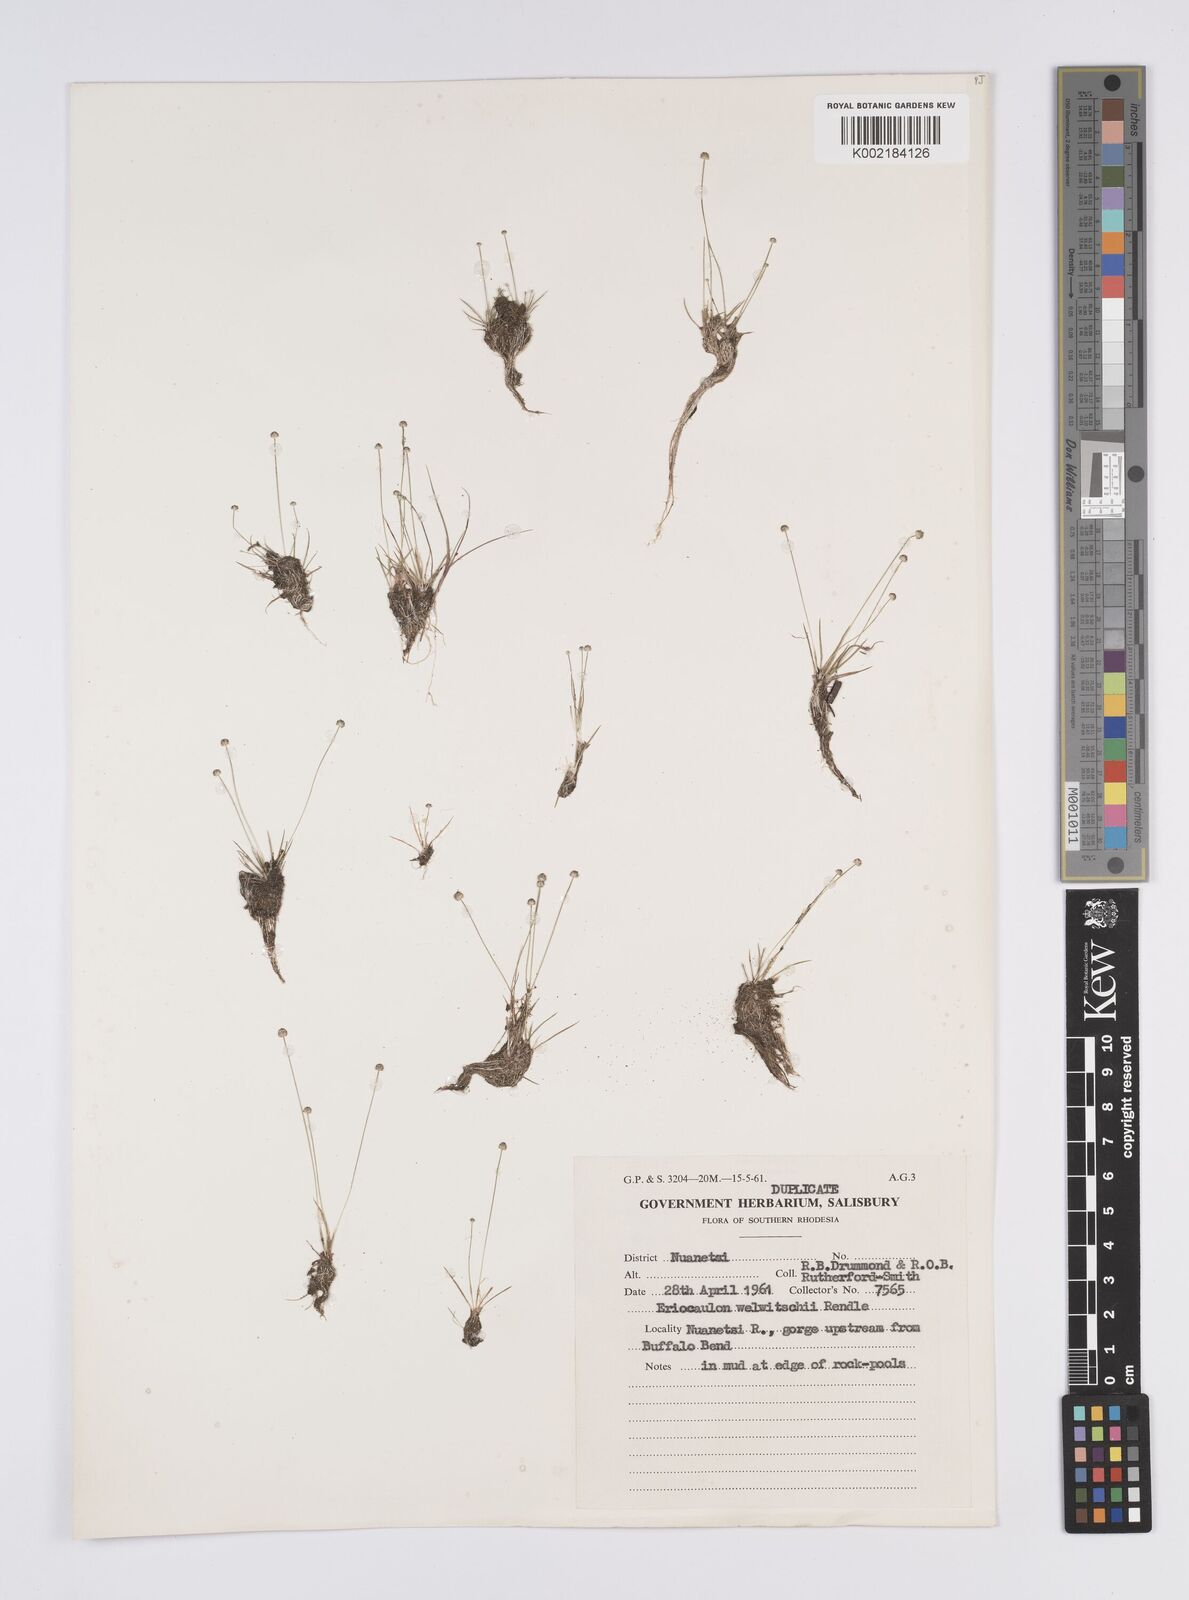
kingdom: Plantae
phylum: Tracheophyta
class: Liliopsida
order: Poales
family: Eriocaulaceae
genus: Eriocaulon
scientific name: Eriocaulon welwitschii
